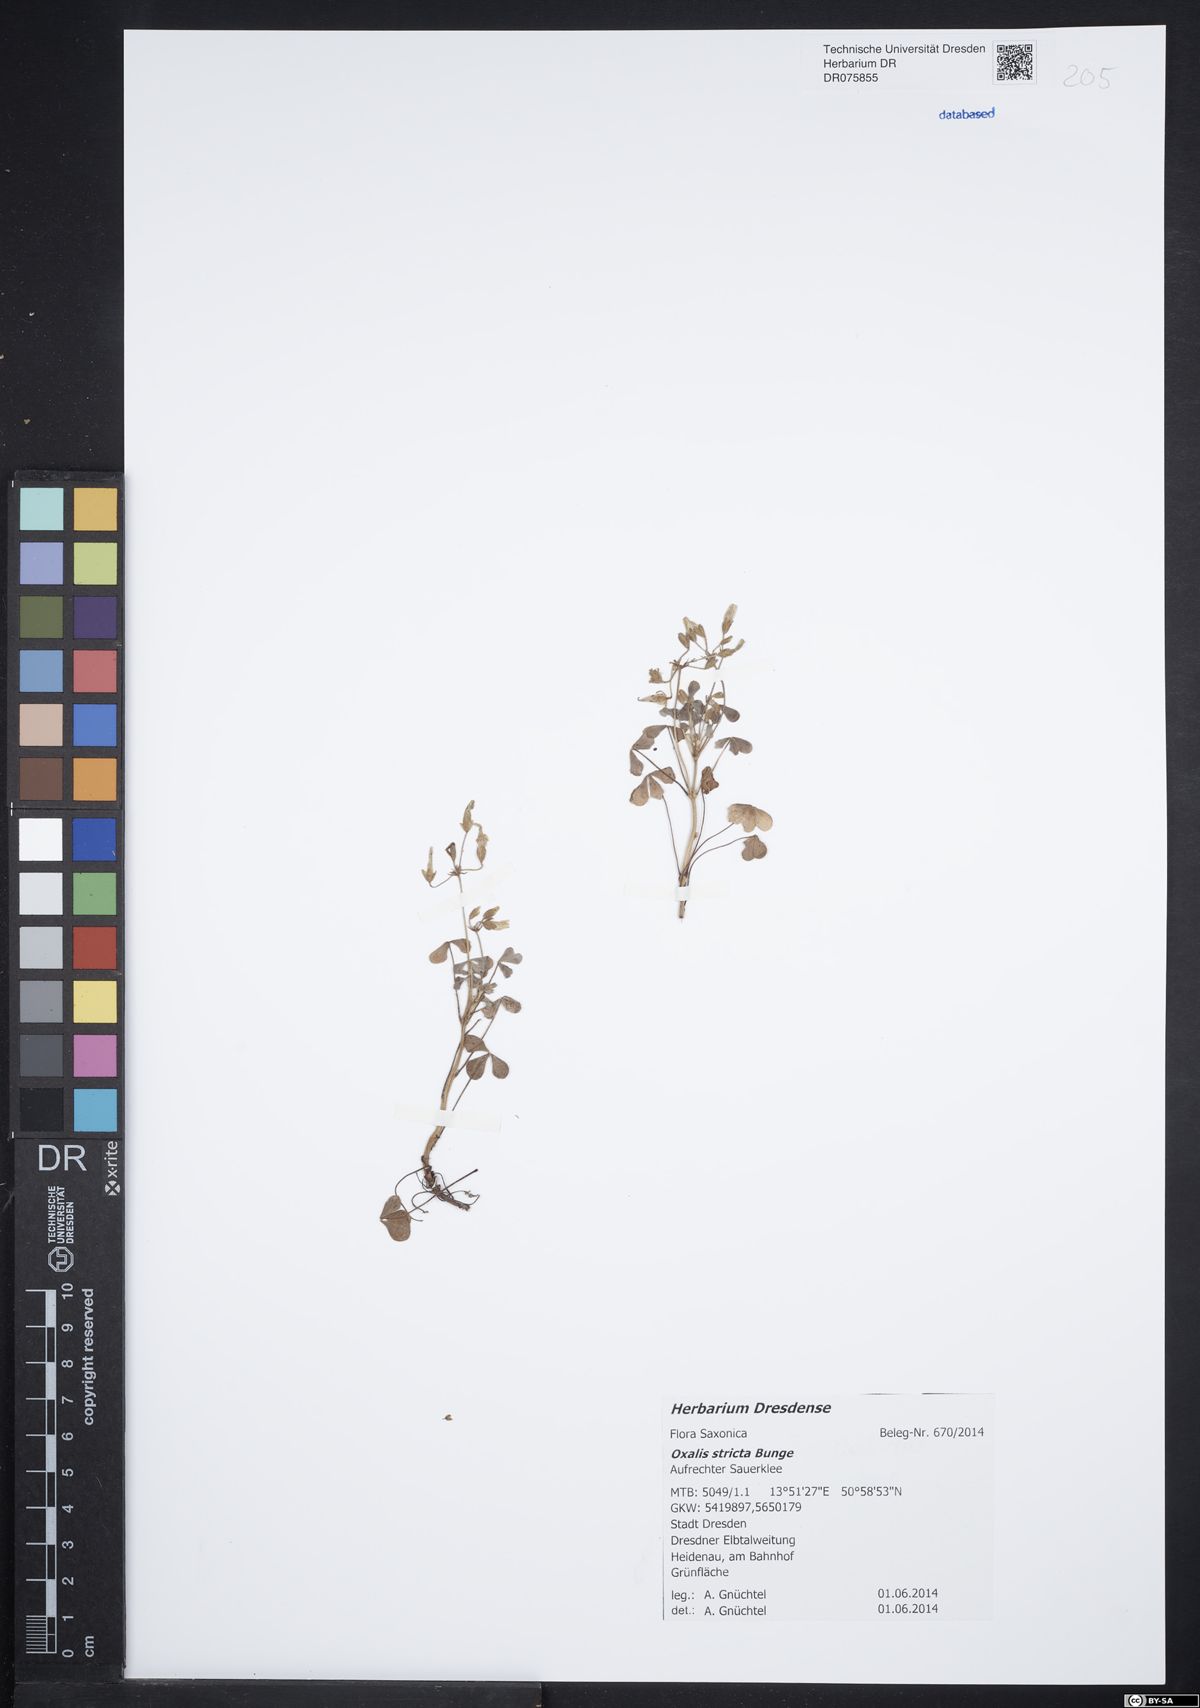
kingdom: Plantae
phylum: Tracheophyta
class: Magnoliopsida
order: Oxalidales
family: Oxalidaceae
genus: Oxalis
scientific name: Oxalis stricta
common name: Upright yellow-sorrel
